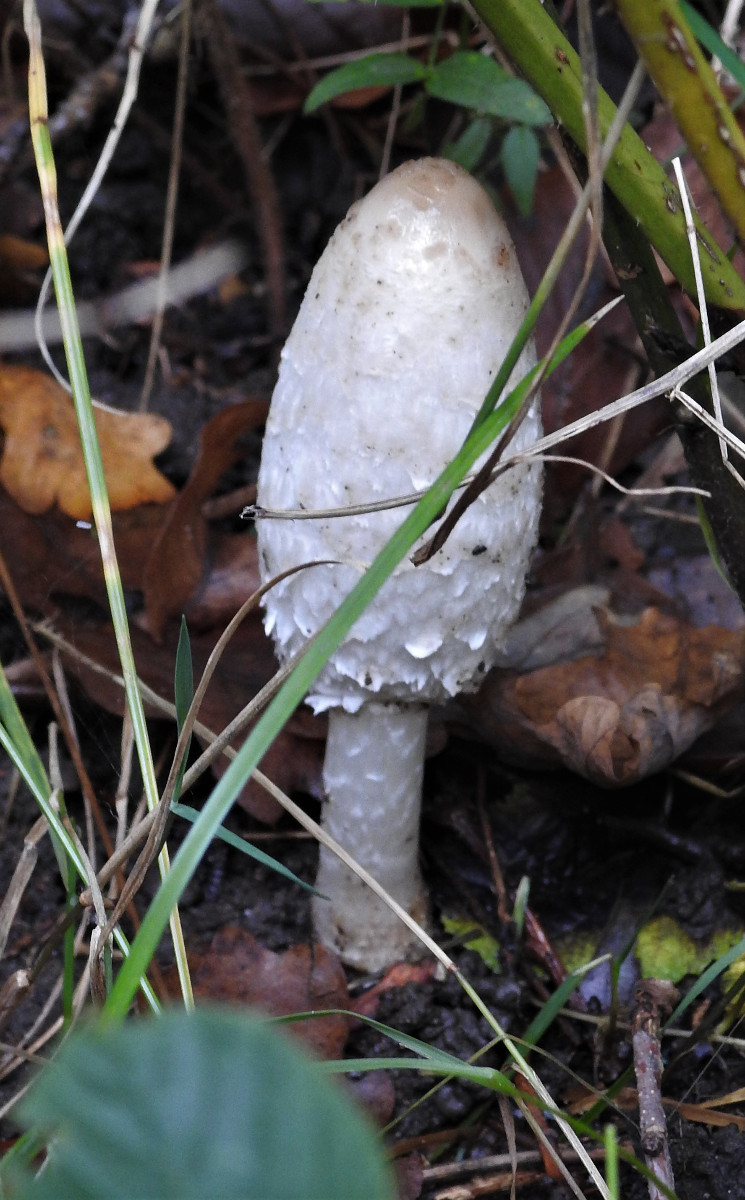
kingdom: Fungi
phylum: Basidiomycota
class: Agaricomycetes
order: Agaricales
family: Agaricaceae
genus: Coprinus
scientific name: Coprinus comatus
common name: stor parykhat
